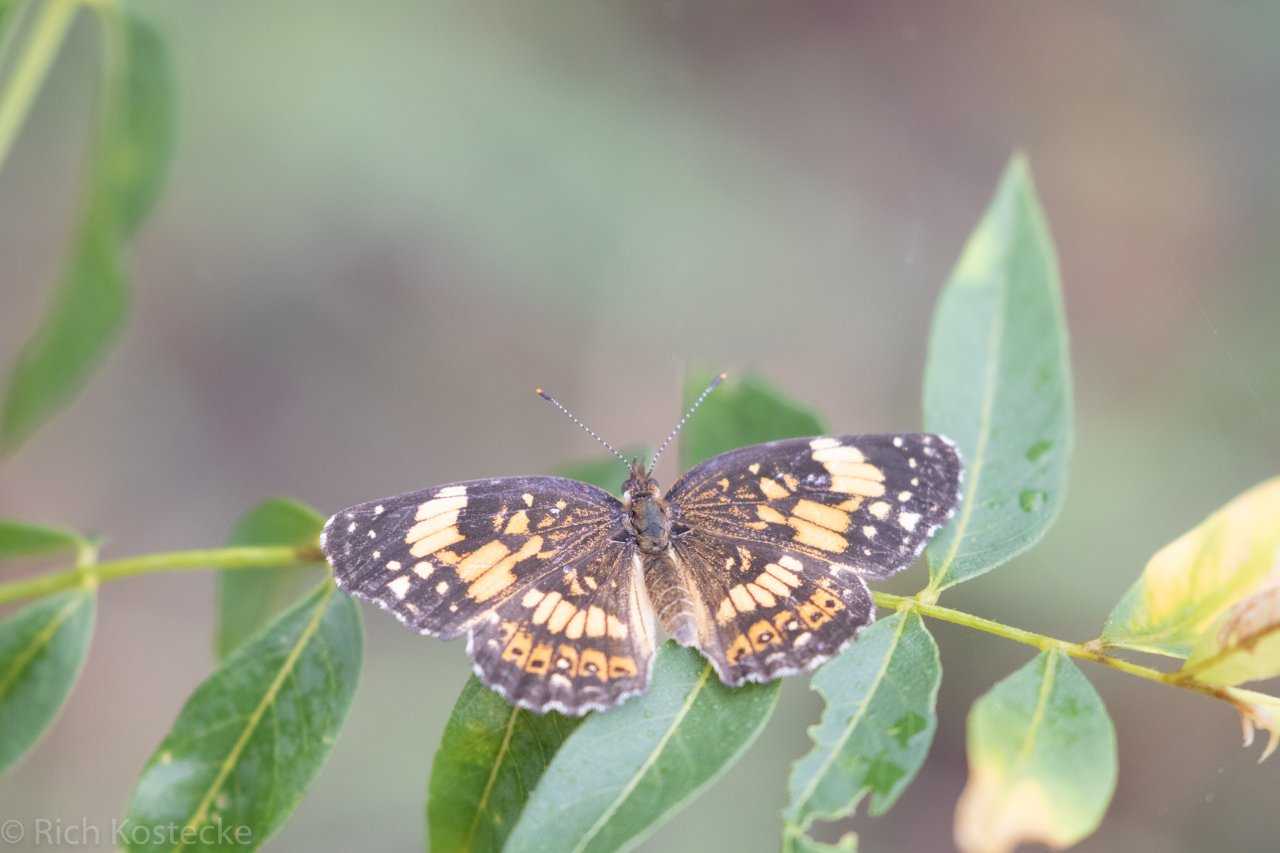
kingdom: Animalia
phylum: Arthropoda
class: Insecta
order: Lepidoptera
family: Nymphalidae
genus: Chlosyne
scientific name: Chlosyne nycteis
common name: Silvery Checkerspot
